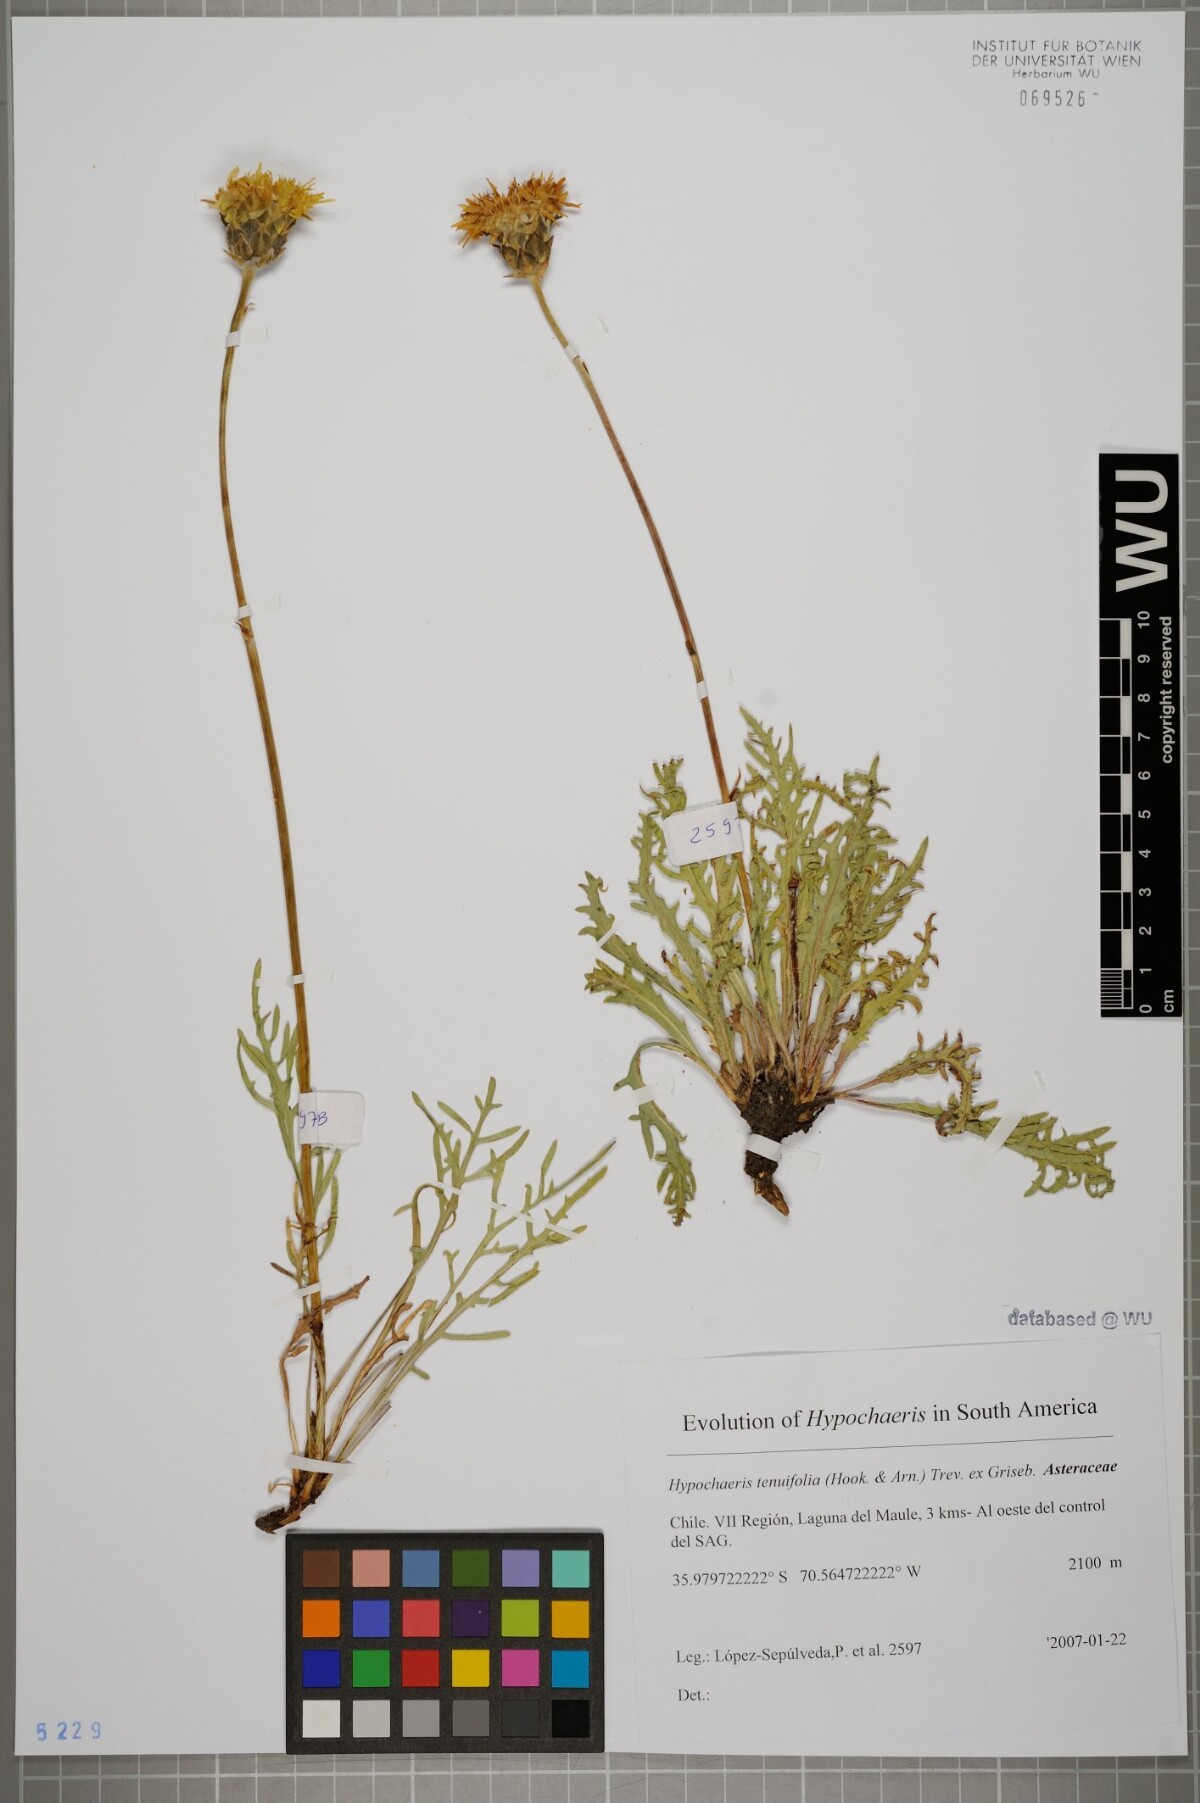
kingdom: Plantae
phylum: Tracheophyta
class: Magnoliopsida
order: Asterales
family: Asteraceae
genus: Hypochaeris
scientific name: Hypochaeris tenuifolia
